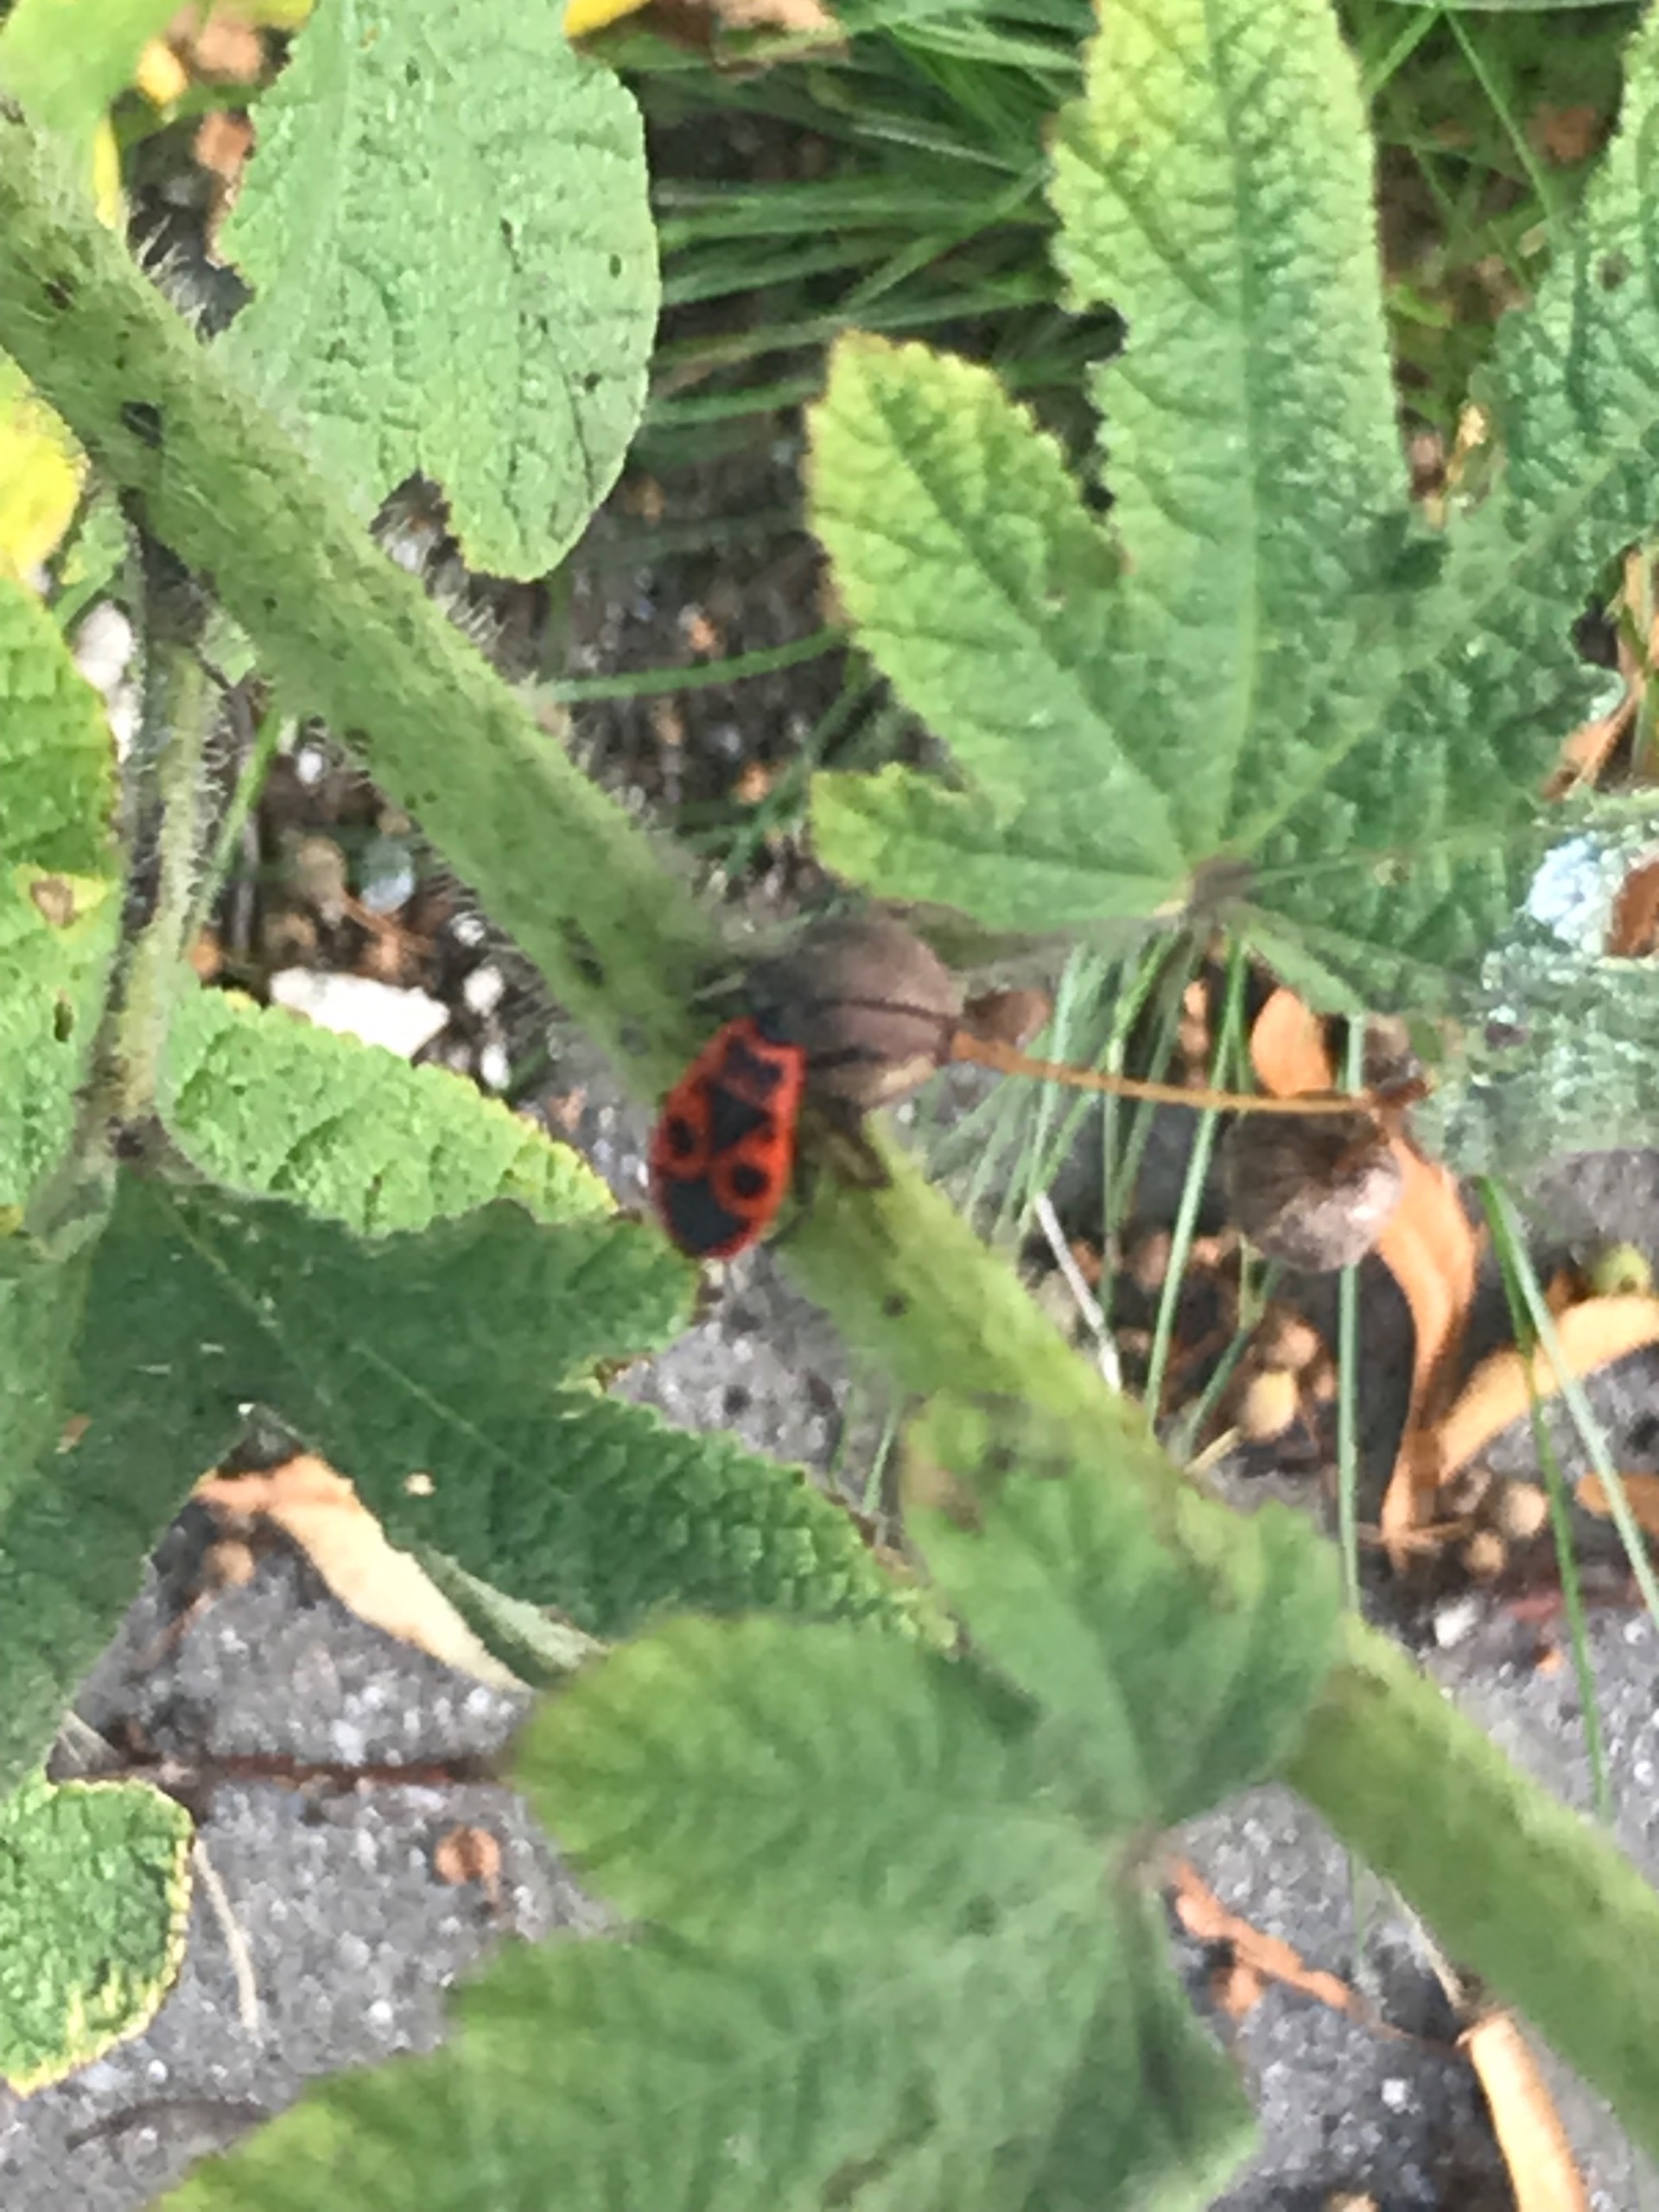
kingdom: Animalia
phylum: Arthropoda
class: Insecta
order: Hemiptera
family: Pyrrhocoridae
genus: Pyrrhocoris
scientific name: Pyrrhocoris apterus
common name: Ildtæge
